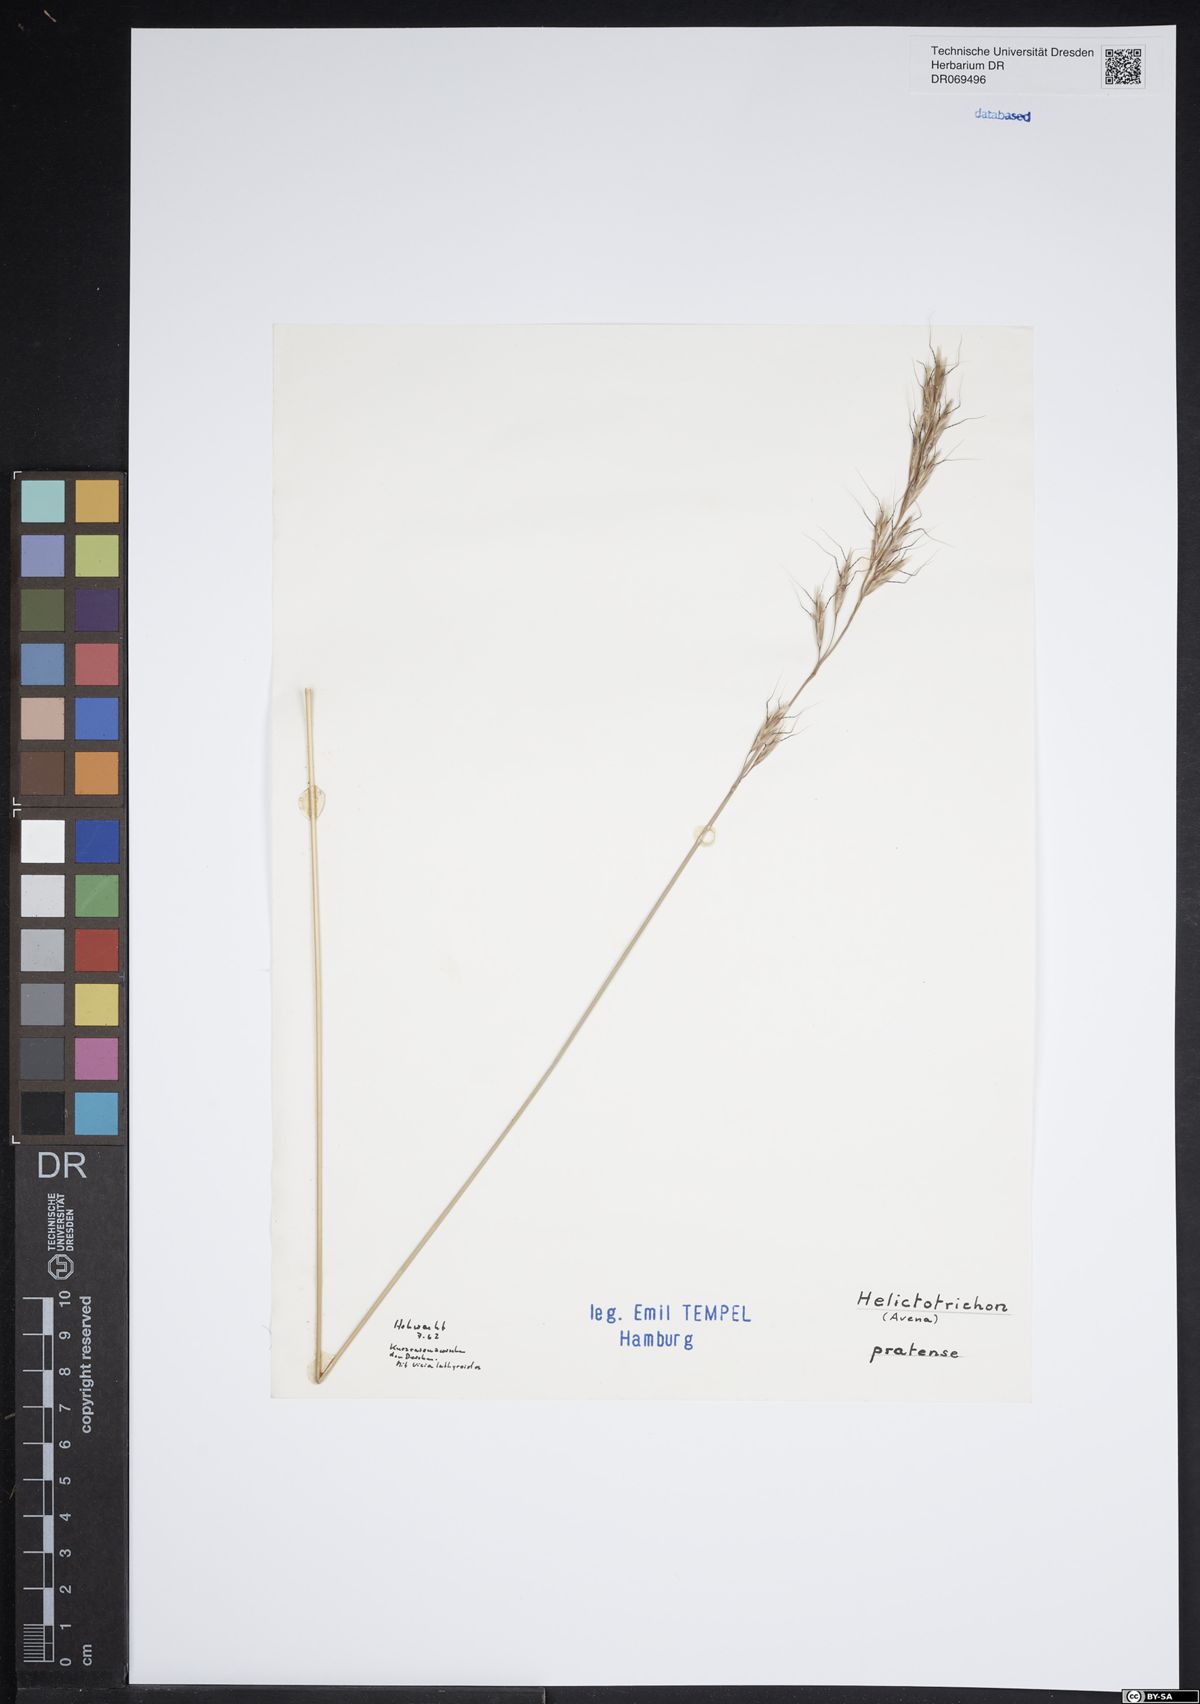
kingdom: Plantae
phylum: Tracheophyta
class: Liliopsida
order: Poales
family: Poaceae
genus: Helictochloa
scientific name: Helictochloa pratensis
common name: Meadow oat grass
